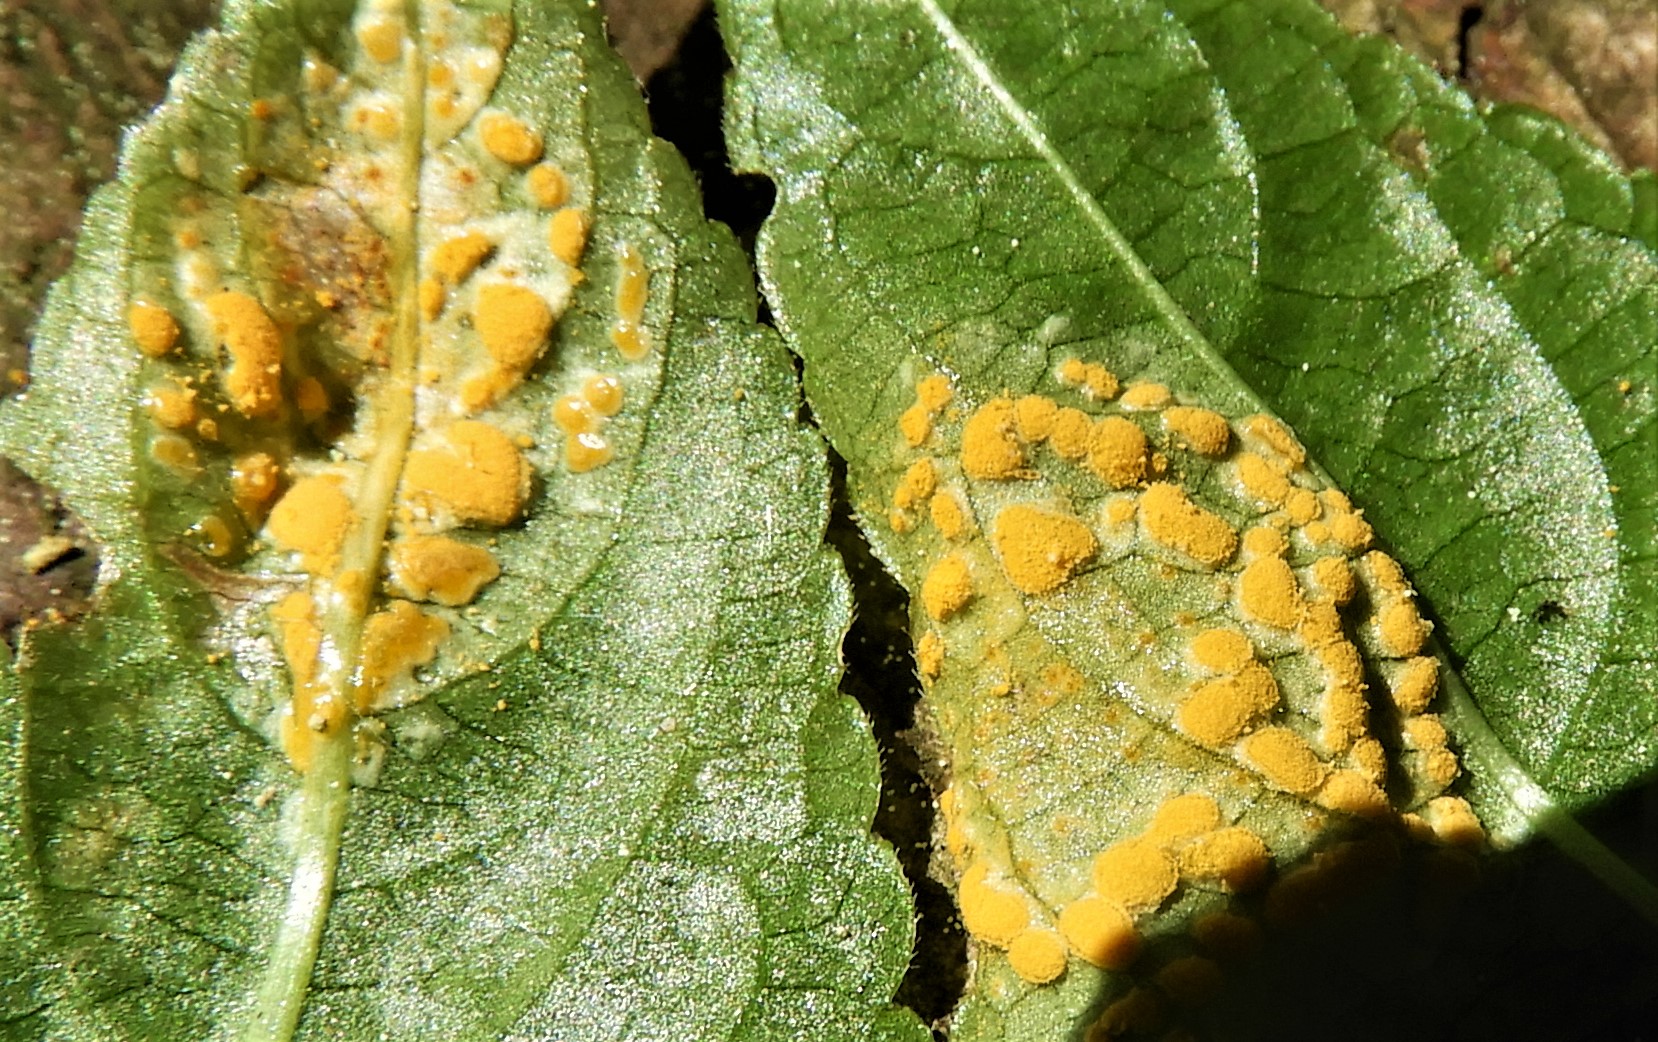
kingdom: Fungi
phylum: Basidiomycota
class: Pucciniomycetes
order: Pucciniales
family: Melampsoraceae
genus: Melampsora
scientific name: Melampsora populnea
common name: poppel-skorperust
